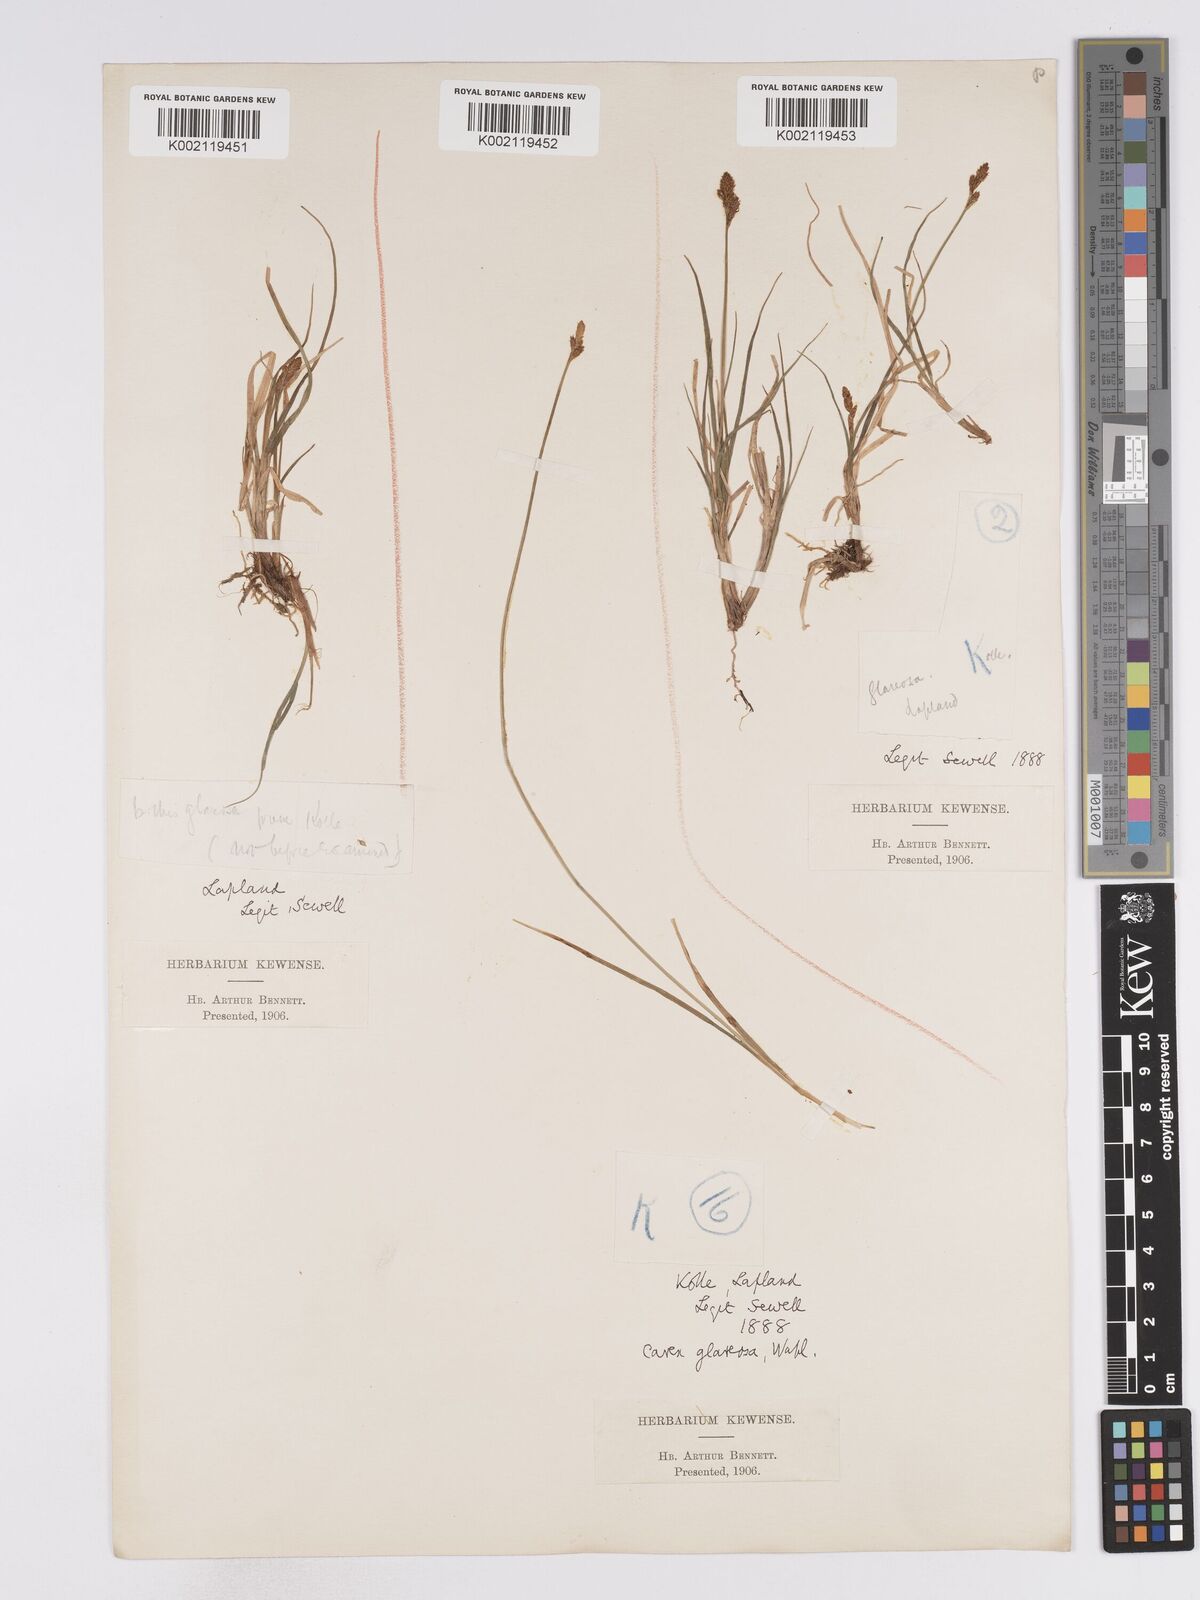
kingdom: Plantae
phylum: Tracheophyta
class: Liliopsida
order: Poales
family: Cyperaceae
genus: Carex
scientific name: Carex glareosa
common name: Clustered sedge
